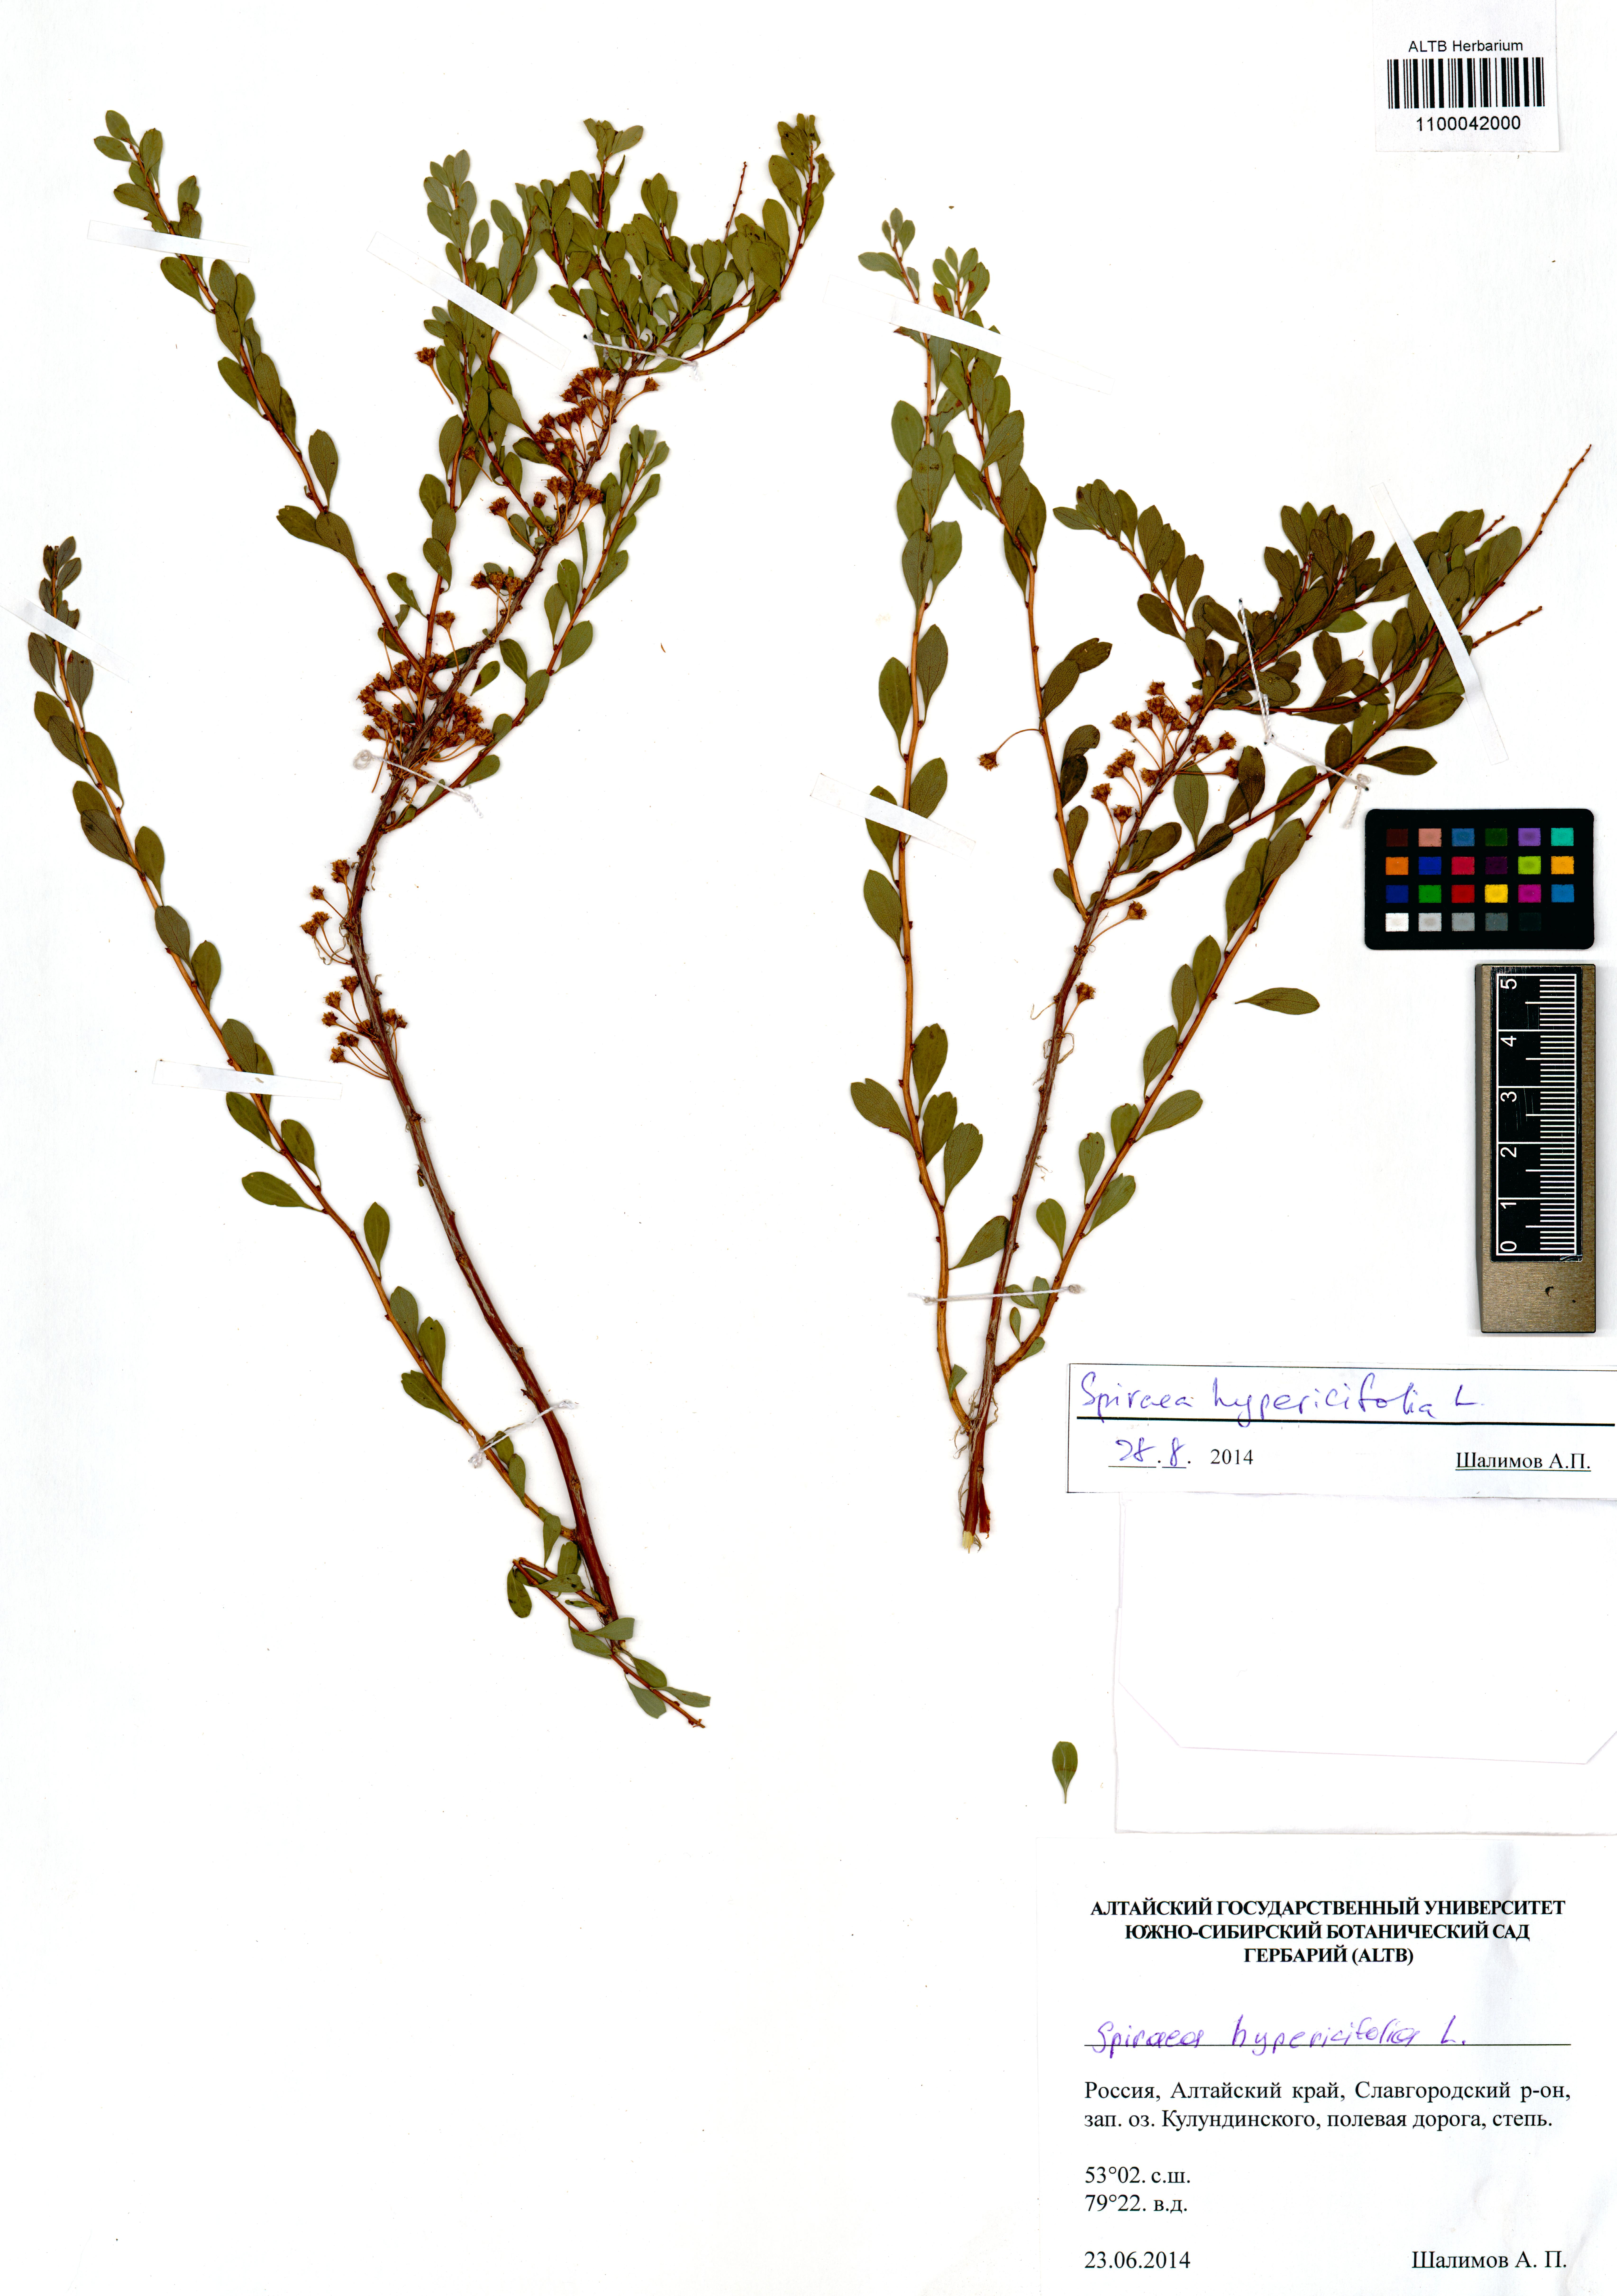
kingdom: Plantae
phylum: Tracheophyta
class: Magnoliopsida
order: Rosales
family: Rosaceae
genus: Spiraea
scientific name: Spiraea hypericifolia
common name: Iberian spirea
